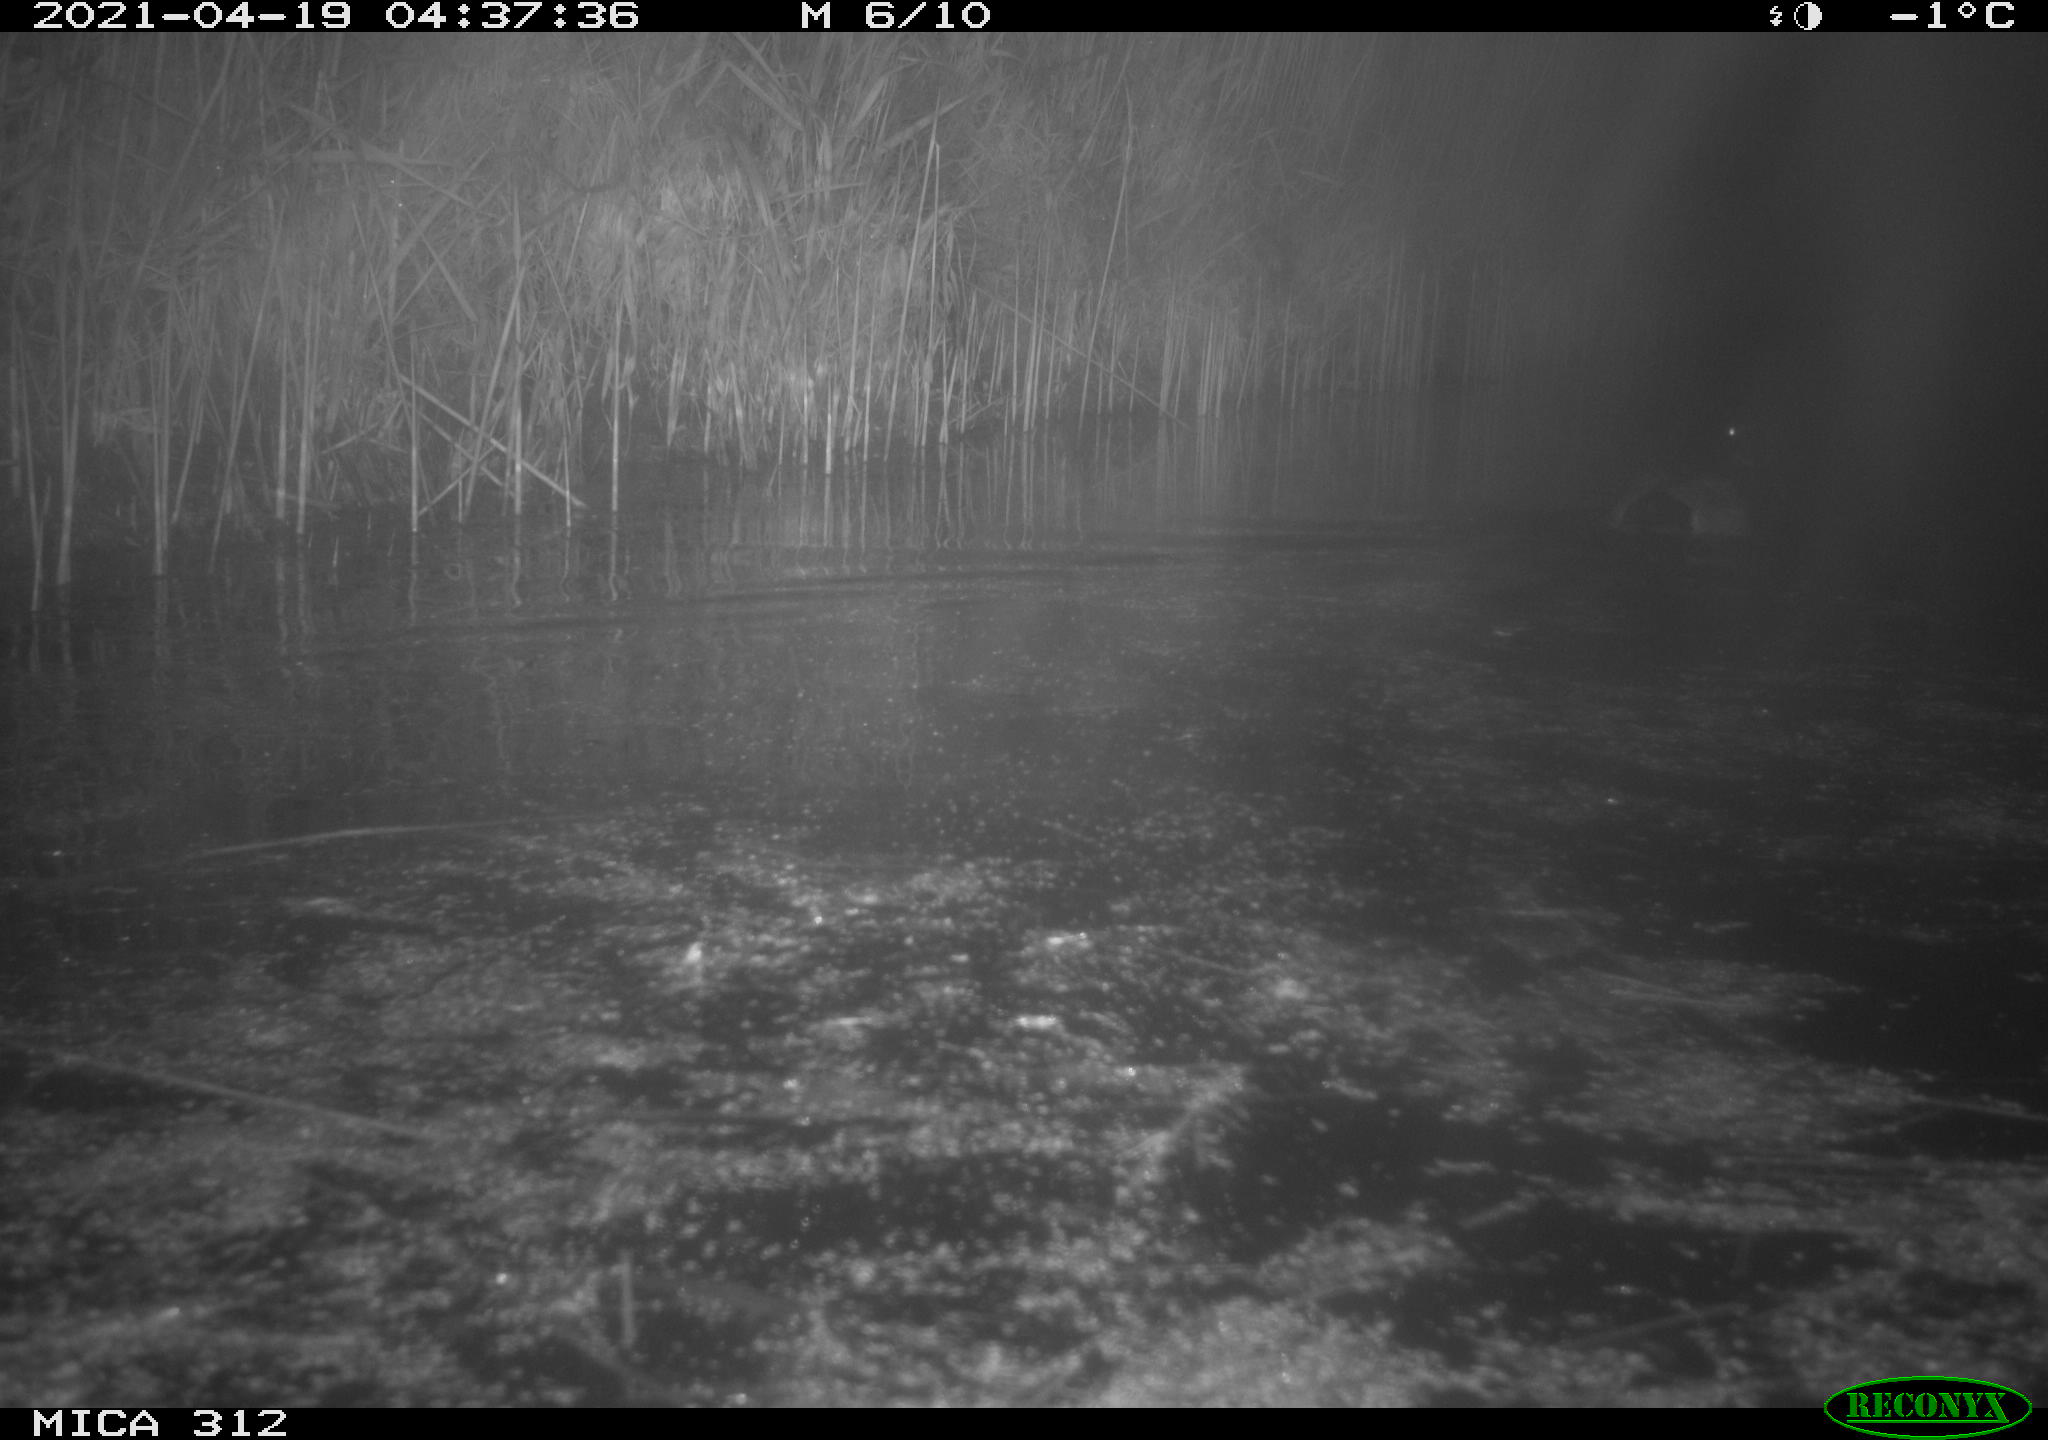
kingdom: Animalia
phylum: Chordata
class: Aves
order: Anseriformes
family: Anatidae
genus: Anas
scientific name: Anas platyrhynchos
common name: Mallard
